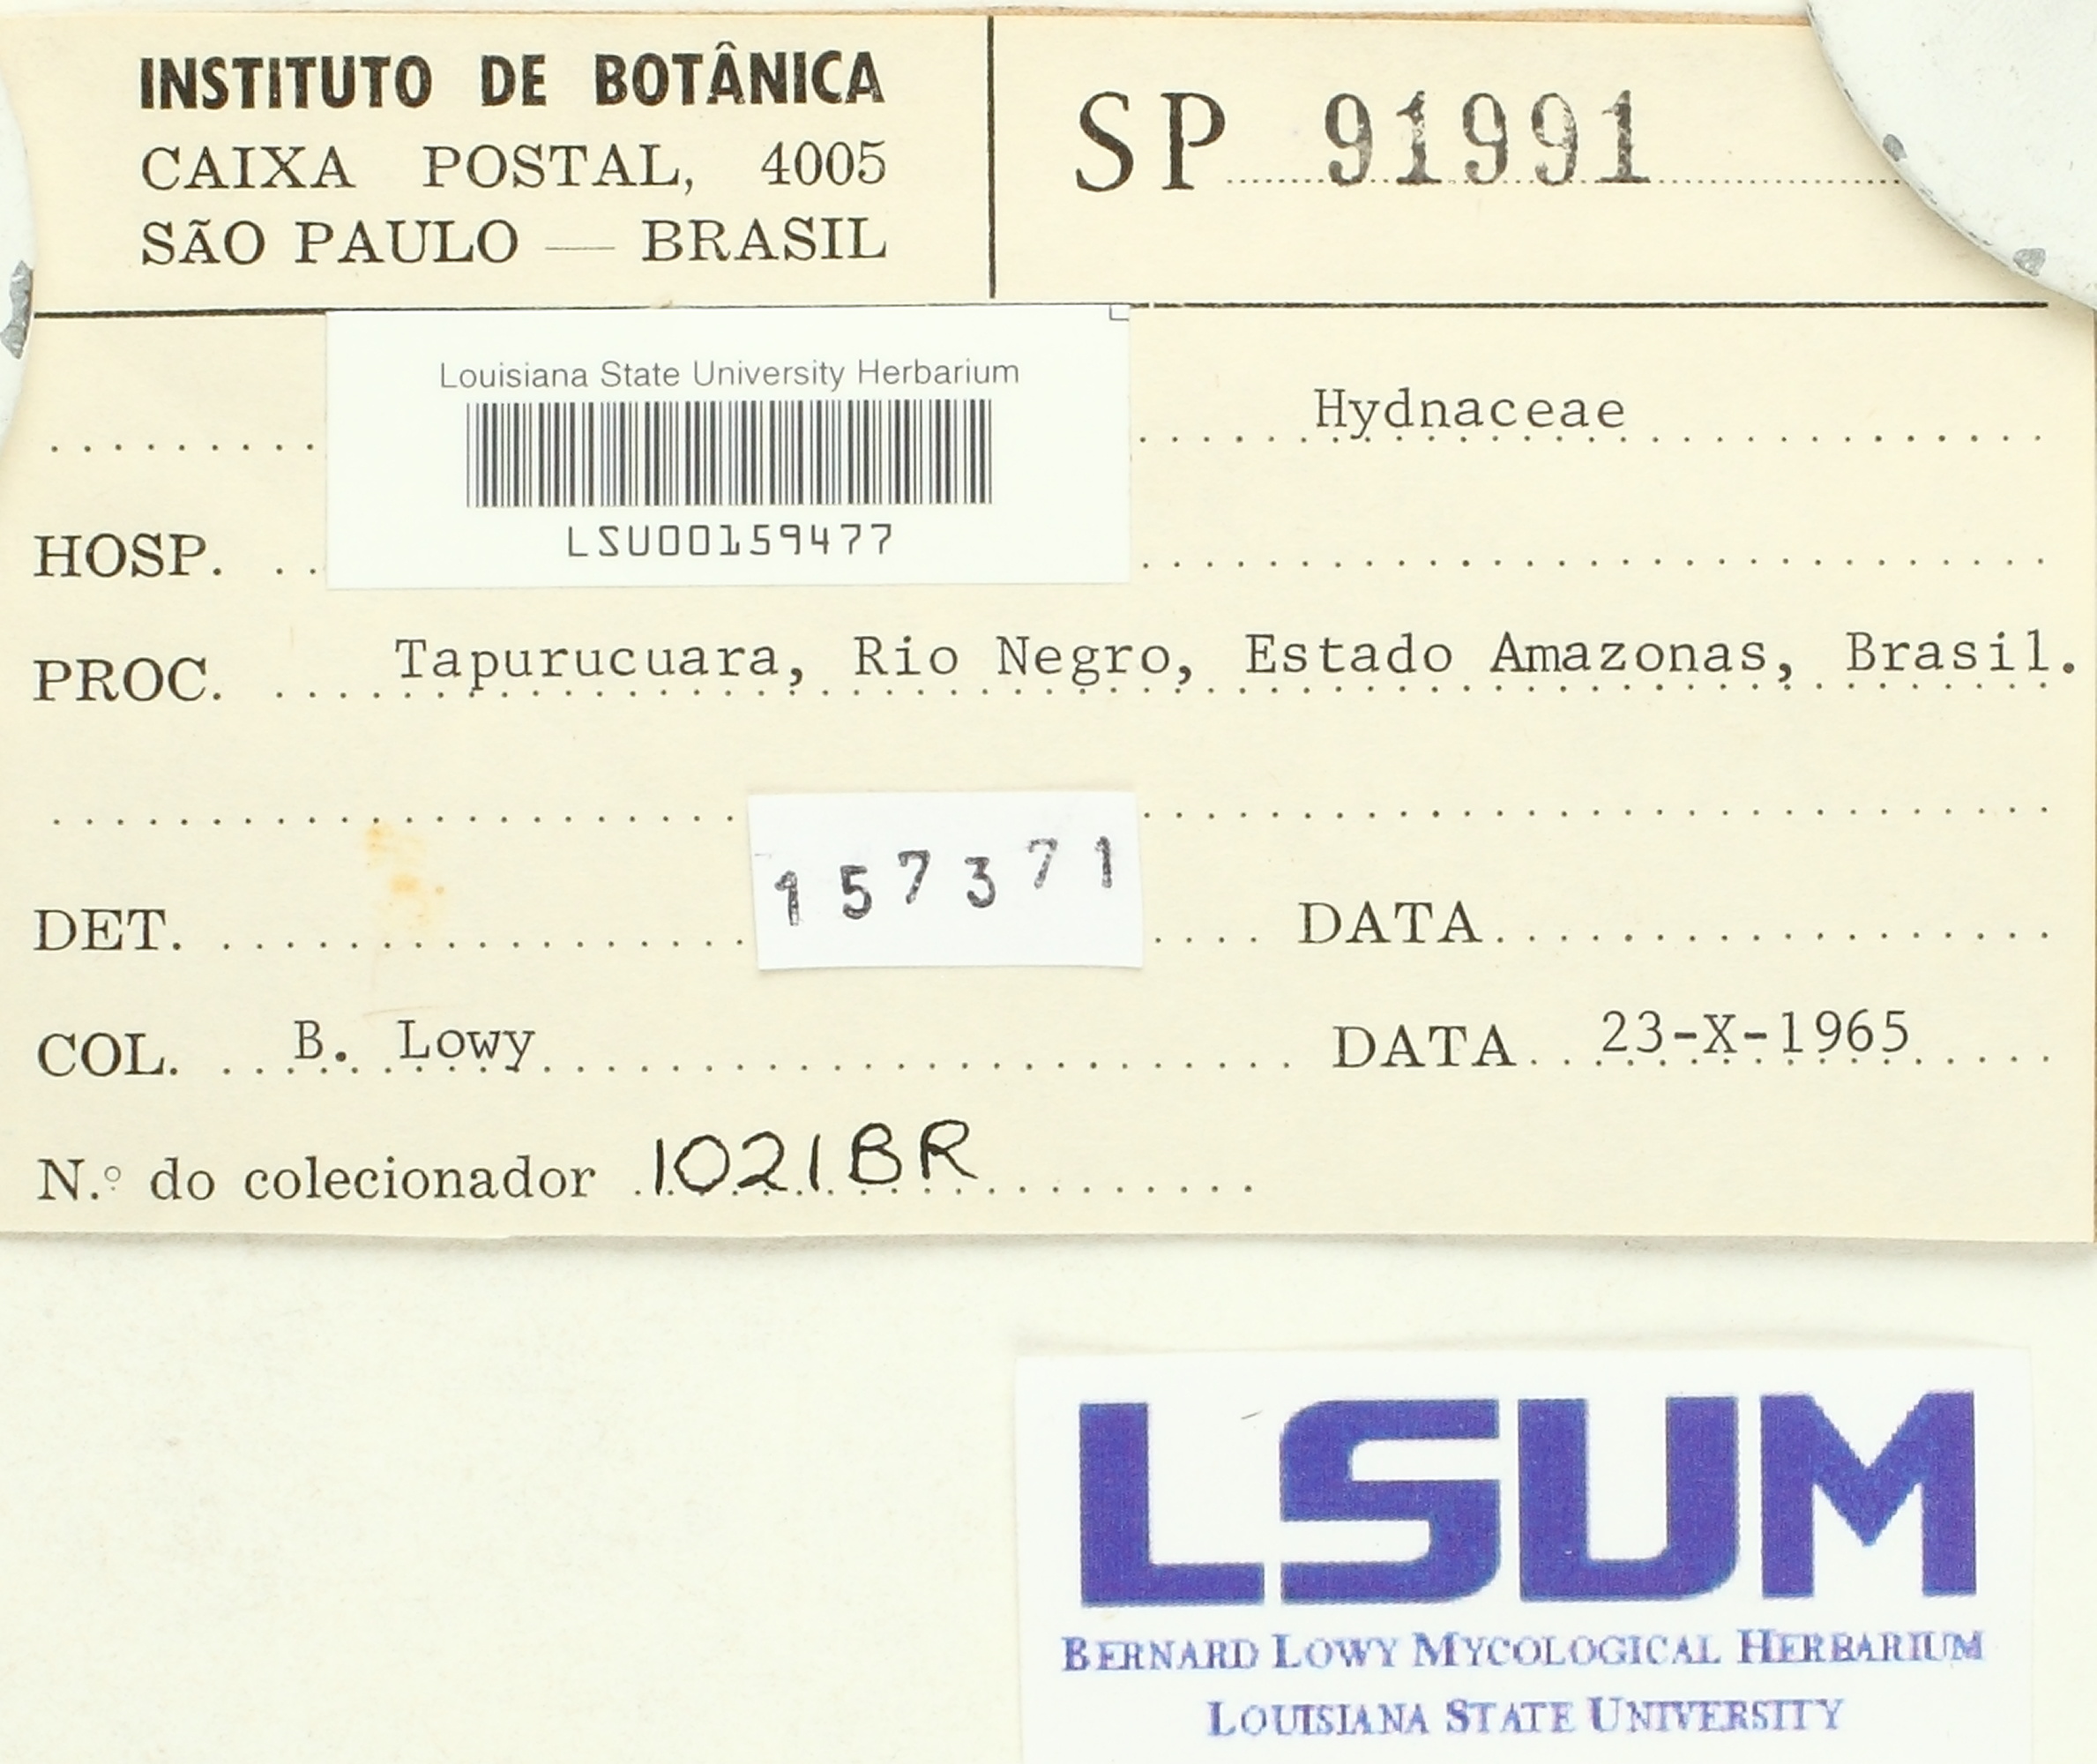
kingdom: Fungi
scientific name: Fungi
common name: Fungi
